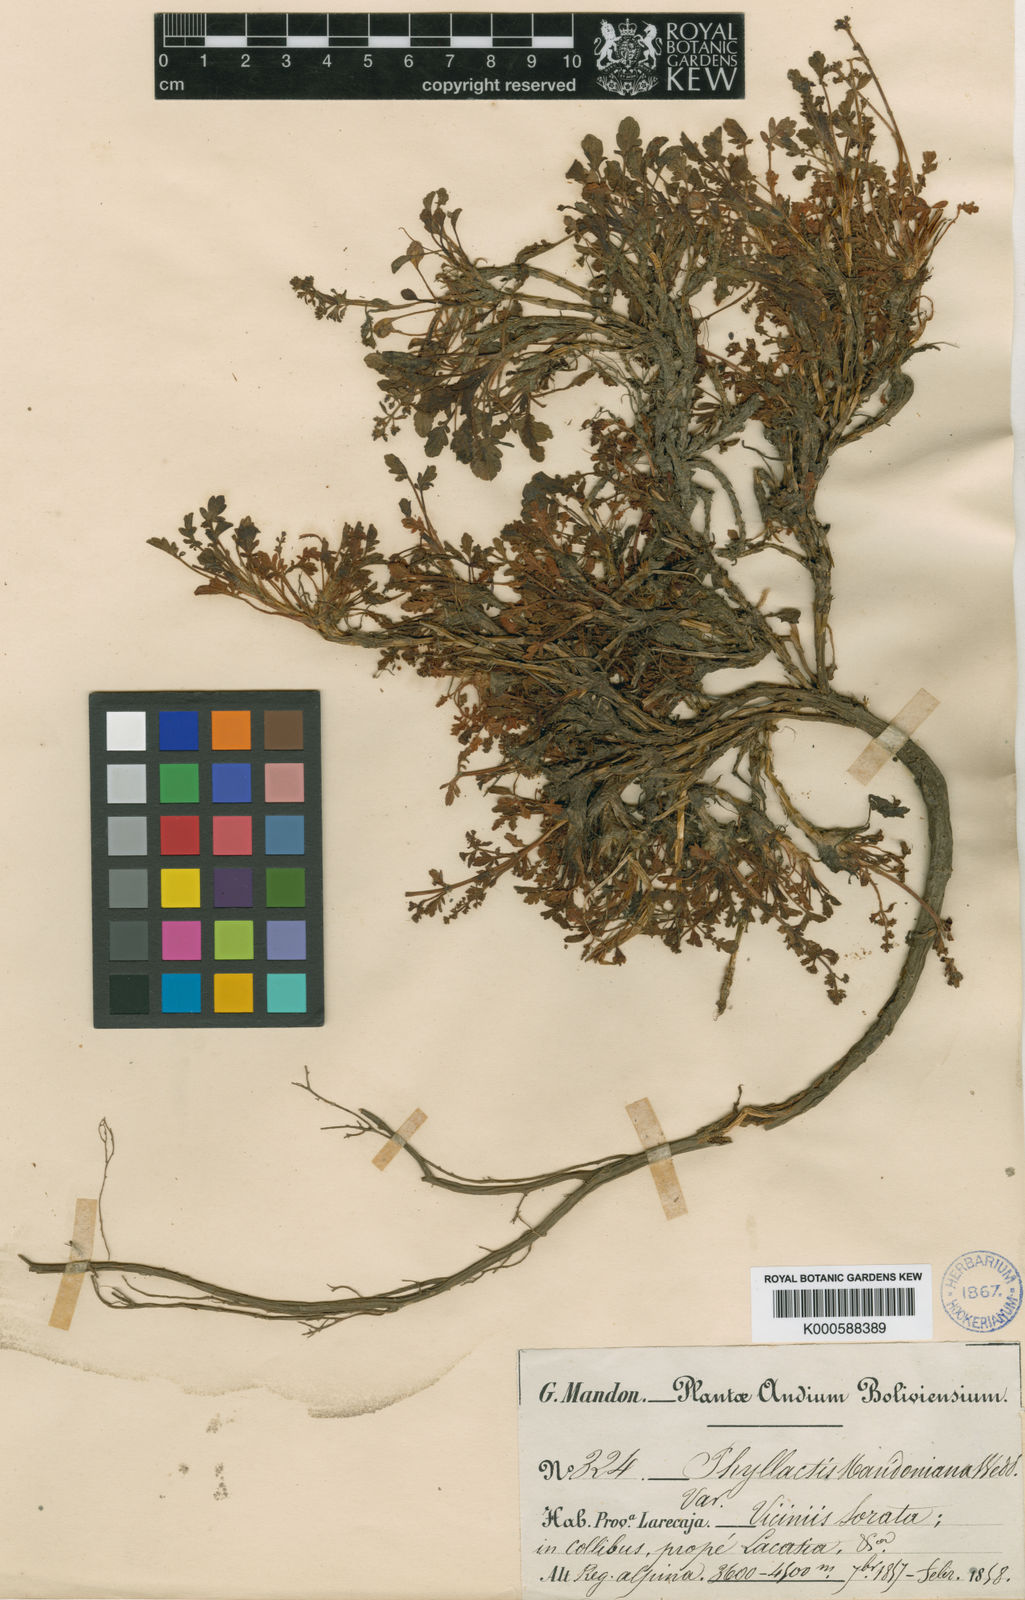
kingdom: Plantae
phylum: Tracheophyta
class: Magnoliopsida
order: Dipsacales
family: Caprifoliaceae
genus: Valeriana
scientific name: Valeriana
